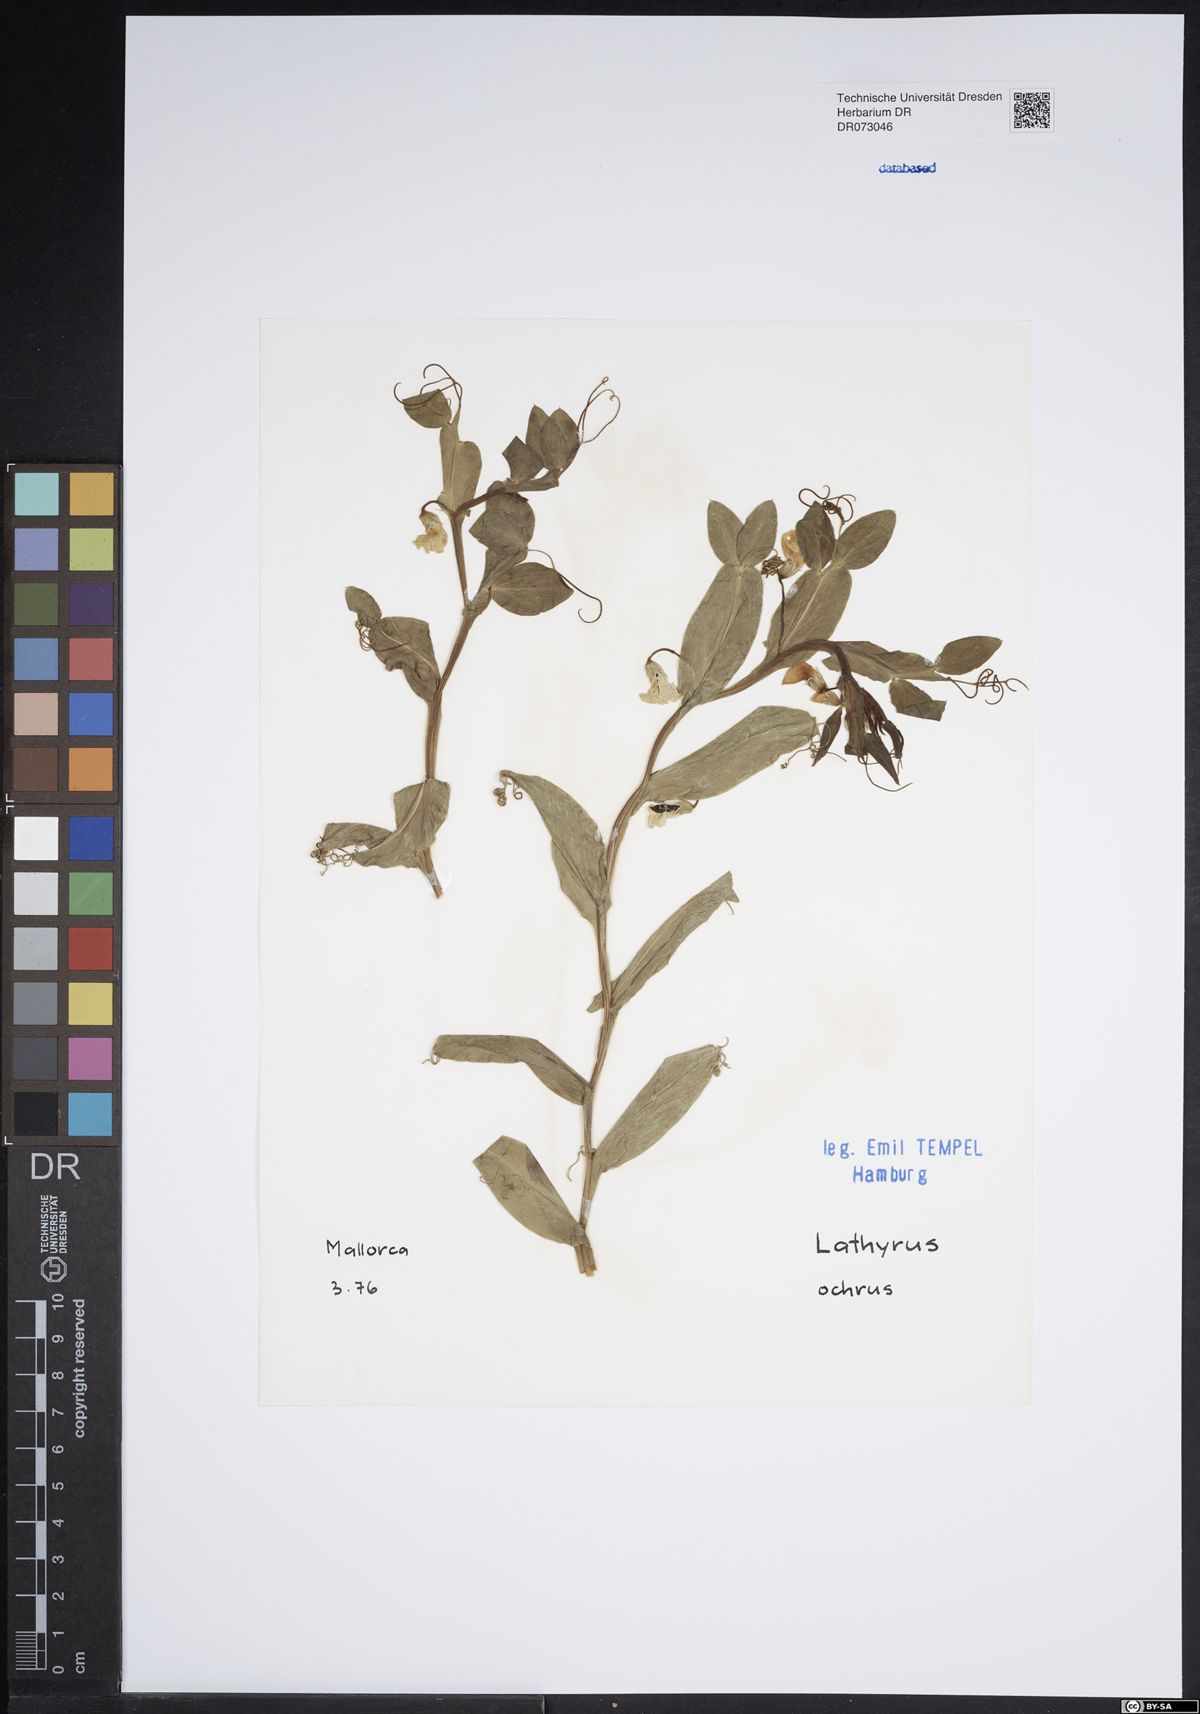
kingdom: Plantae
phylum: Tracheophyta
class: Magnoliopsida
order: Fabales
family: Fabaceae
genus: Lathyrus
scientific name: Lathyrus hirsutus
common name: Hairy vetchling
